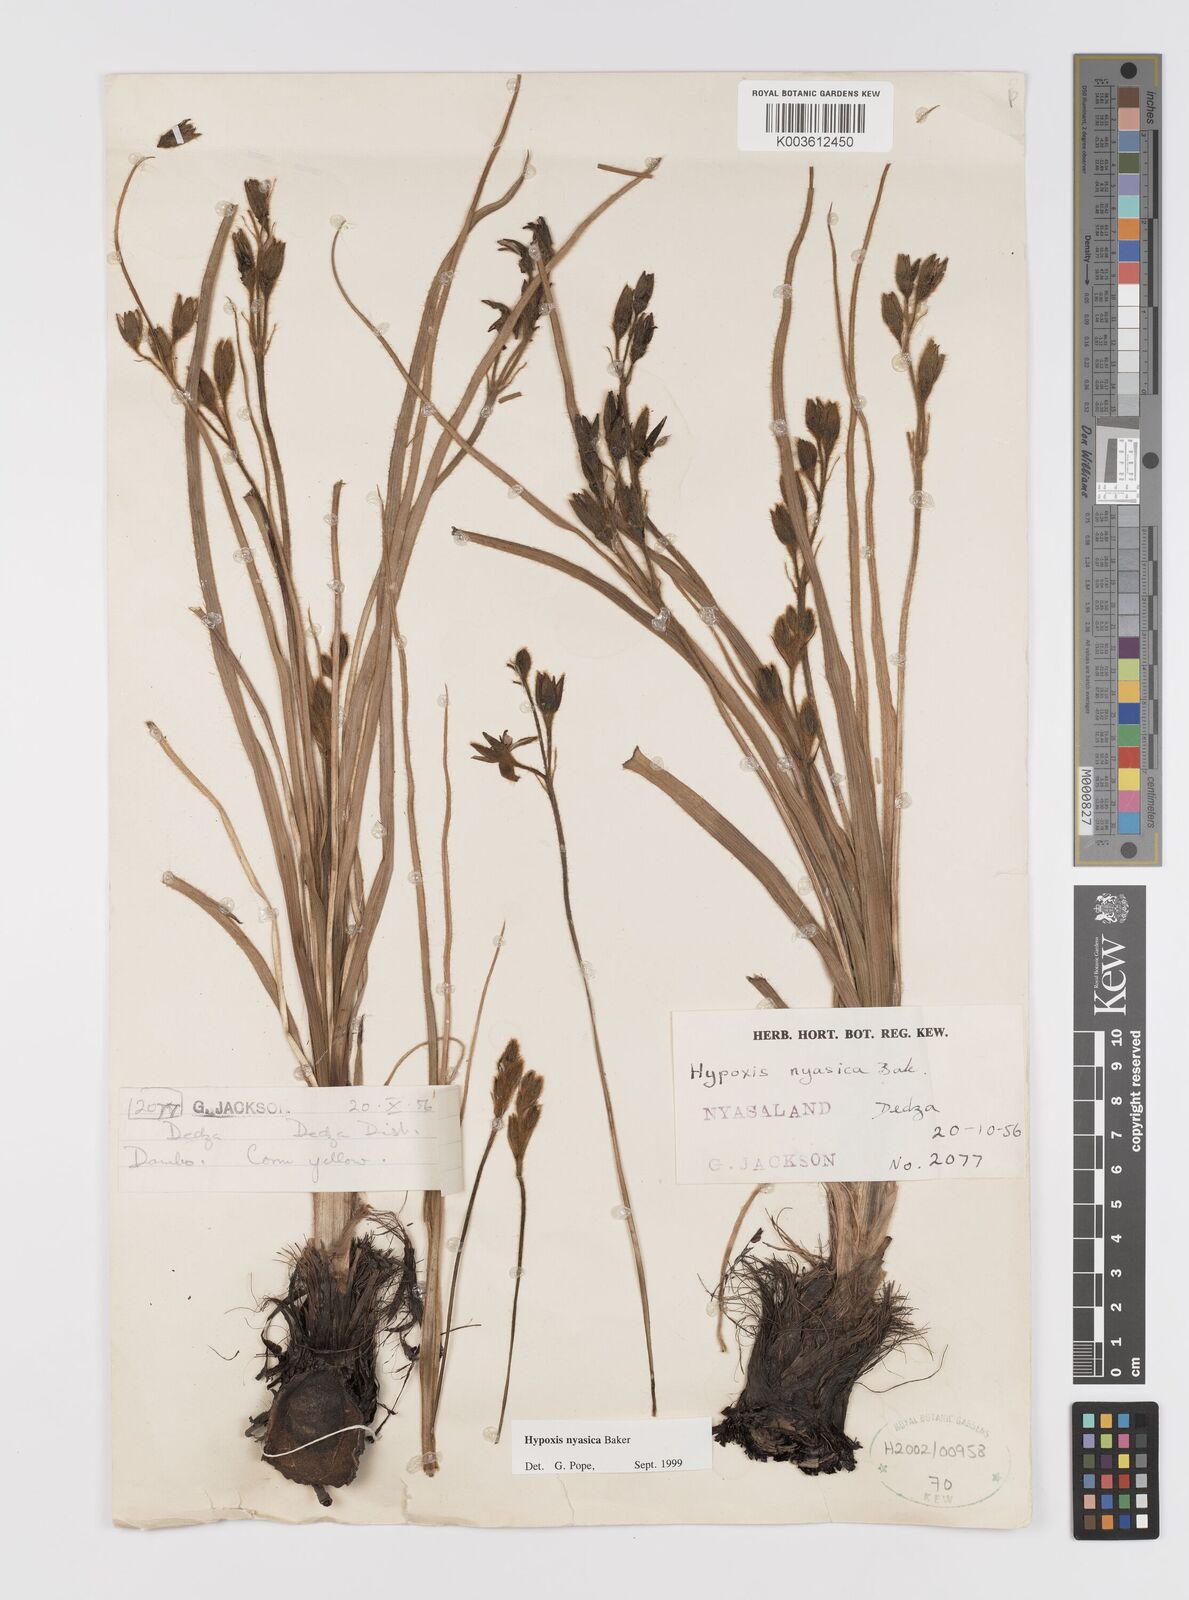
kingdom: Plantae
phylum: Tracheophyta
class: Liliopsida
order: Asparagales
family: Hypoxidaceae
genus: Hypoxis
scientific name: Hypoxis nyasica
